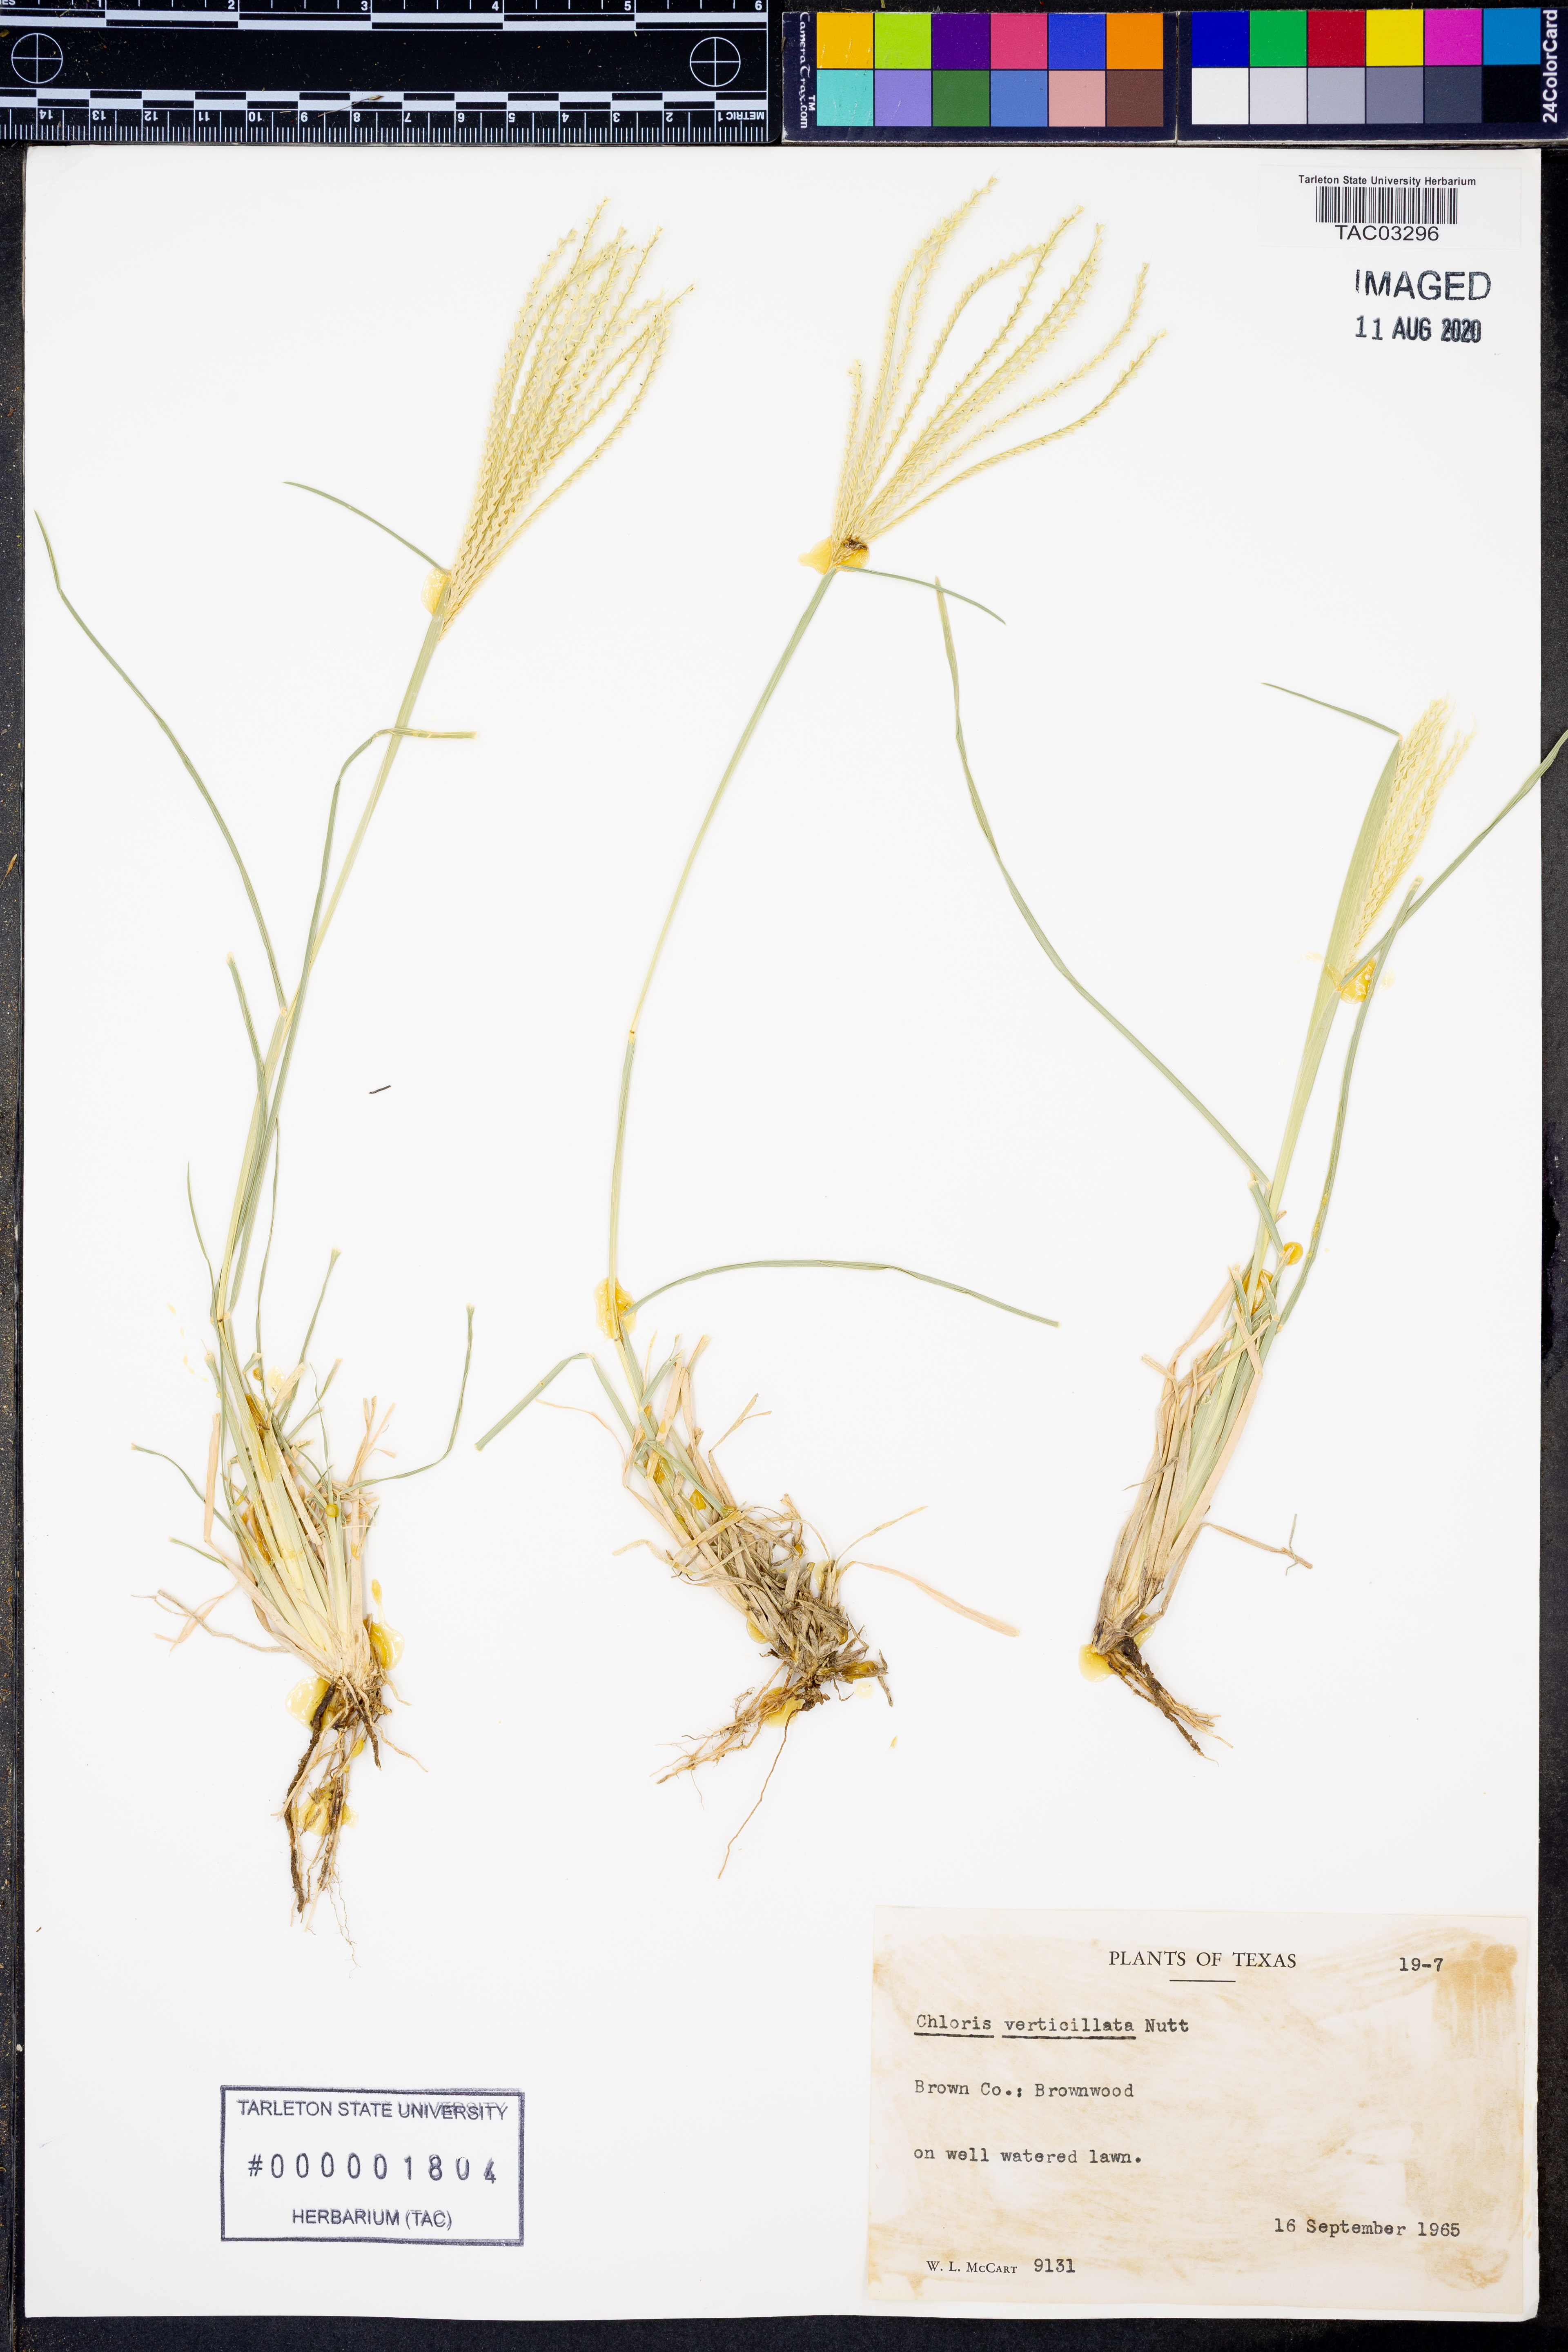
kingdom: Plantae
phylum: Tracheophyta
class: Liliopsida
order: Poales
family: Poaceae
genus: Chloris
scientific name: Chloris verticillata
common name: Tumble windmill grass
